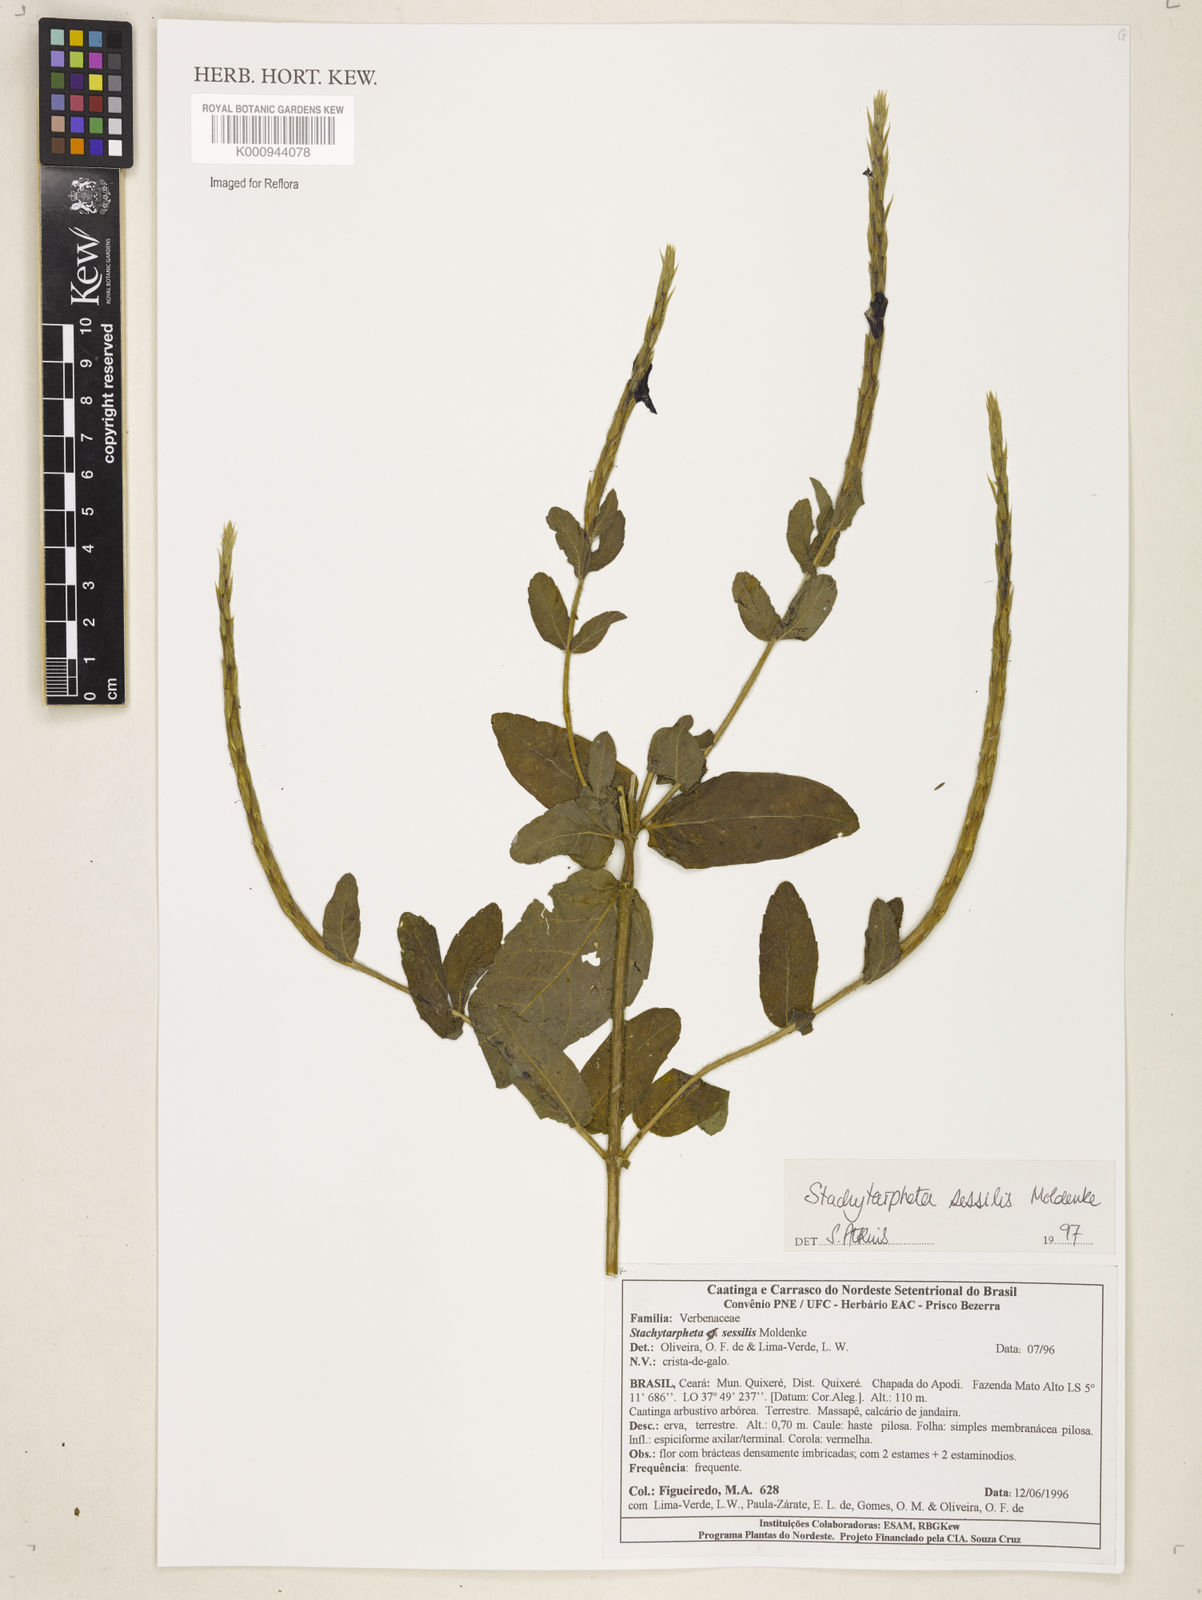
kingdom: Plantae
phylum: Tracheophyta
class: Magnoliopsida
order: Lamiales
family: Verbenaceae
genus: Stachytarpheta
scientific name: Stachytarpheta sessilis
